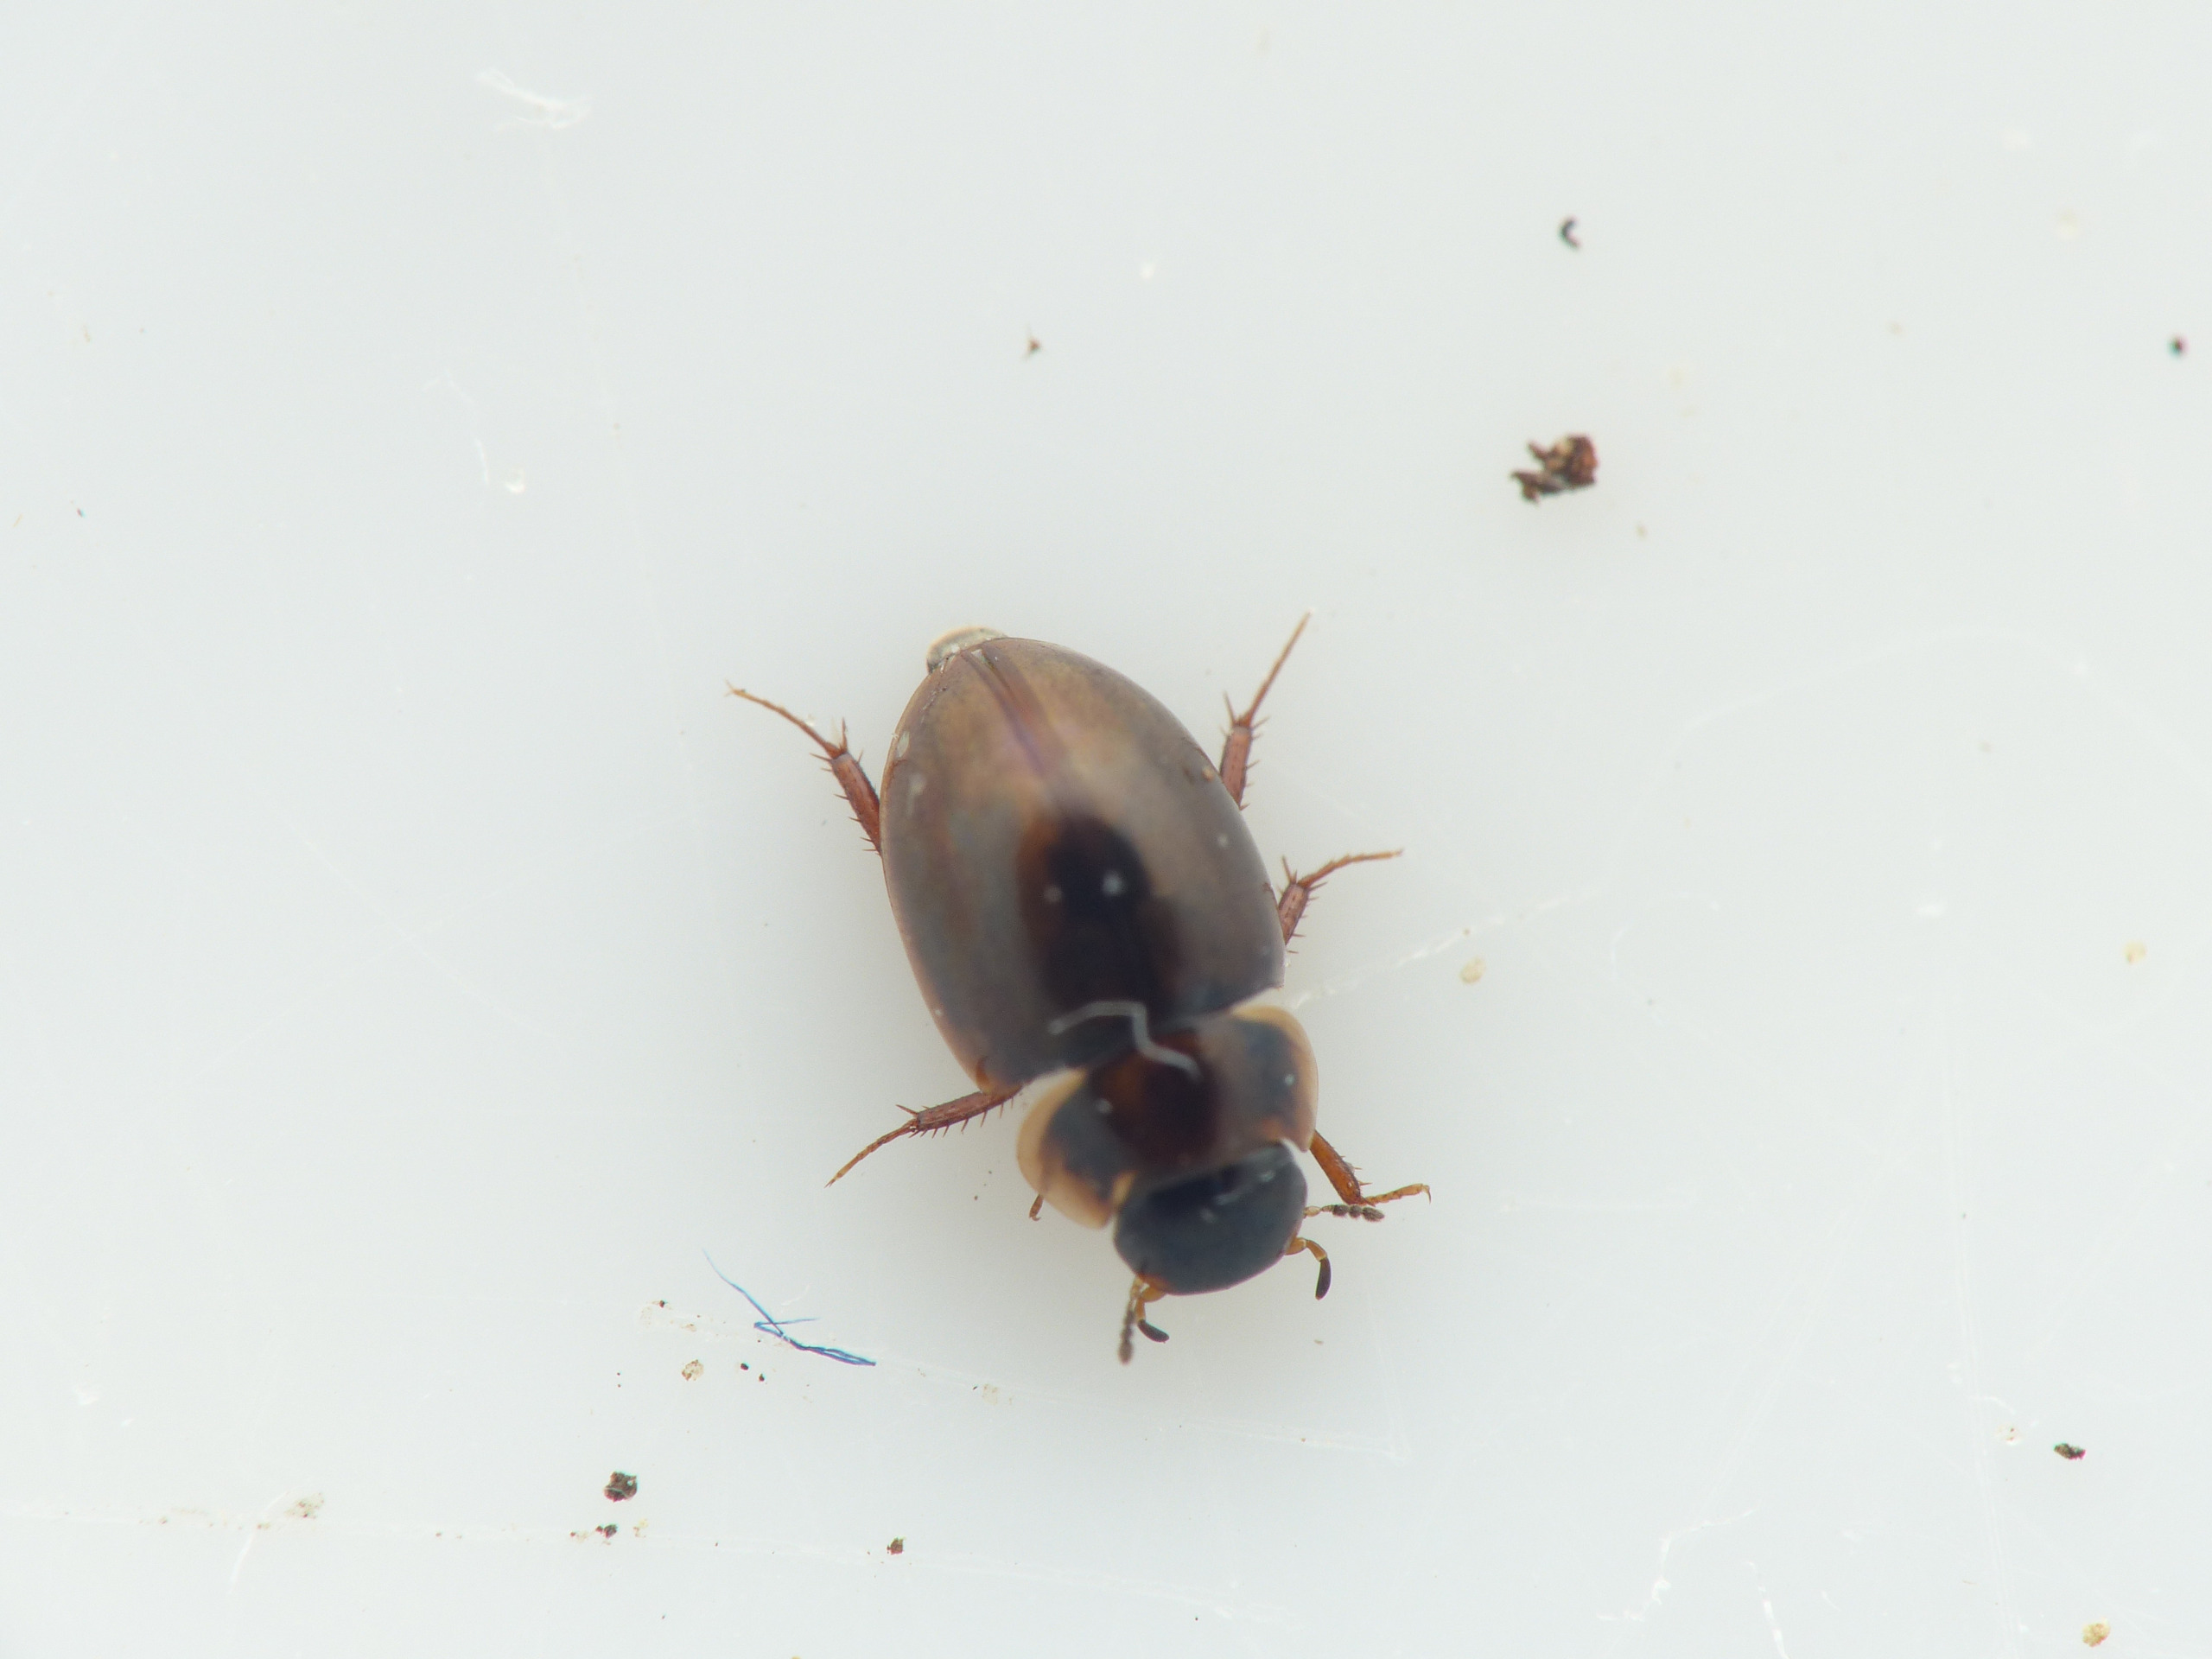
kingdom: Animalia
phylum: Arthropoda
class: Insecta
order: Coleoptera
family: Hydrophilidae
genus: Anacaena
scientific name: Anacaena lutescens
